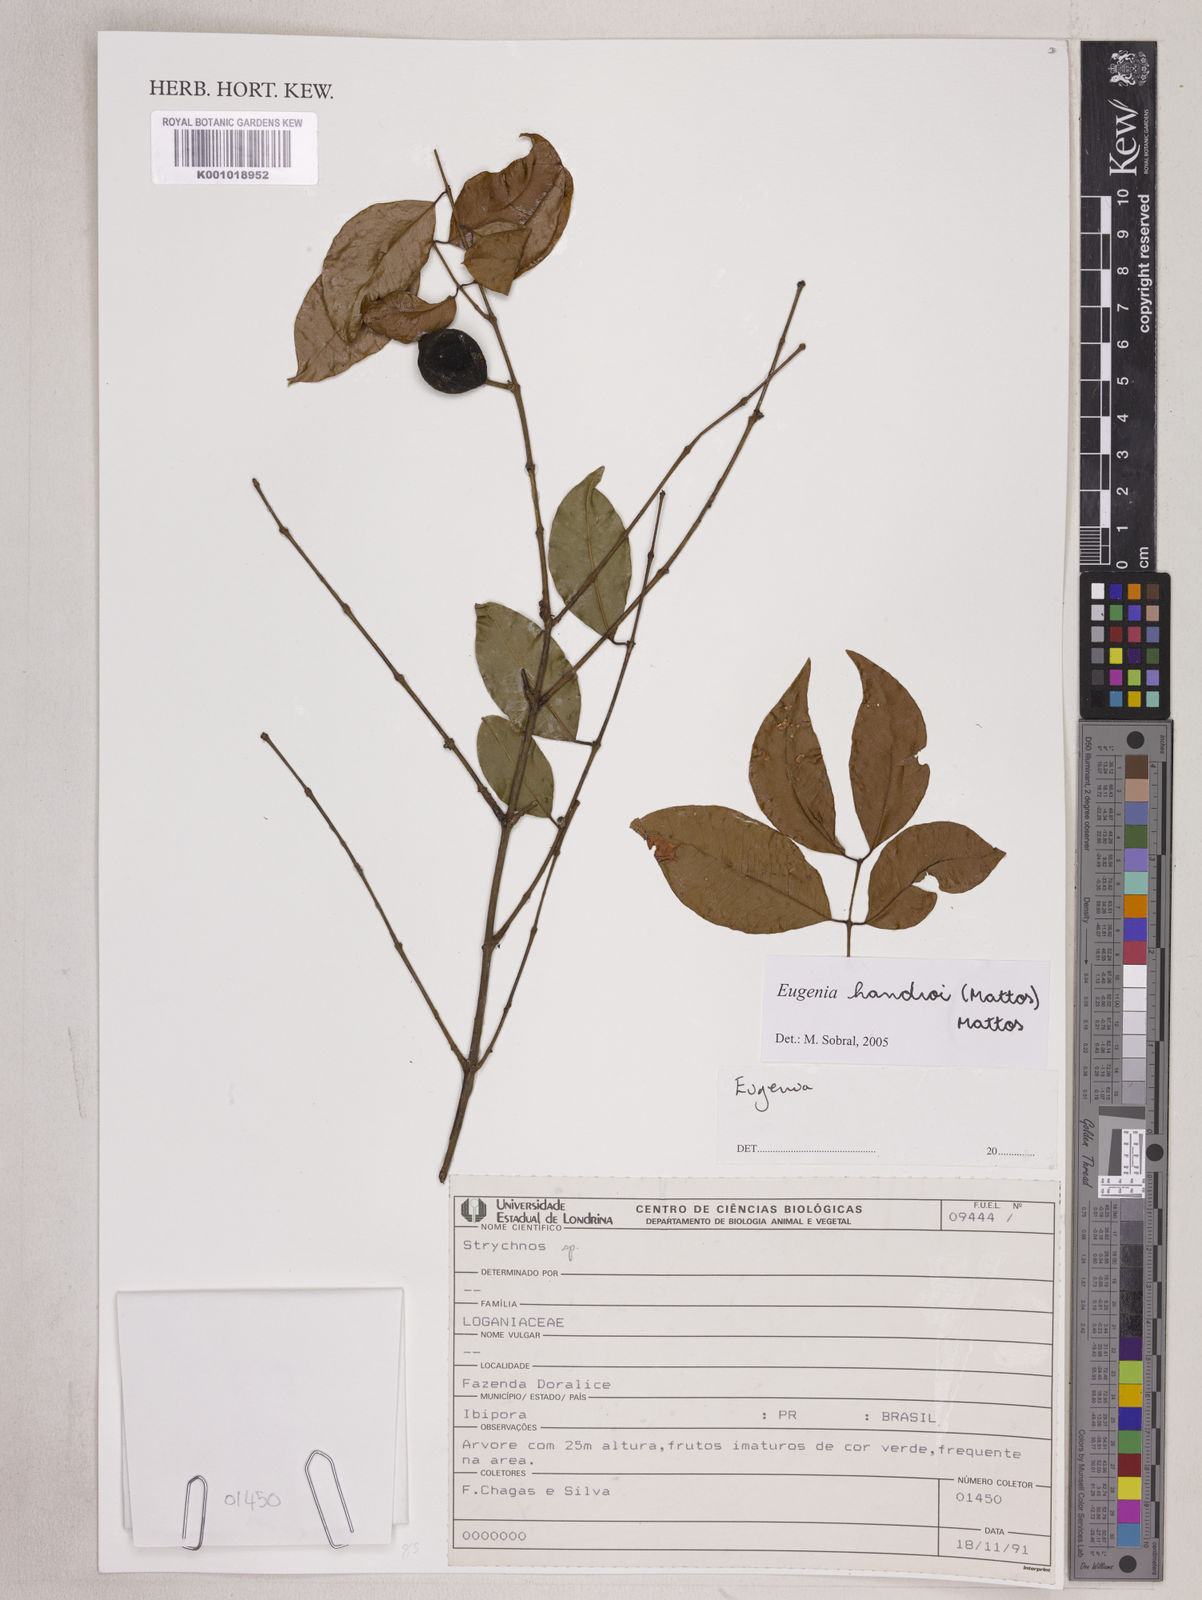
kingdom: Plantae
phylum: Tracheophyta
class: Magnoliopsida
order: Myrtales
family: Myrtaceae
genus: Eugenia
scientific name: Eugenia handroi
